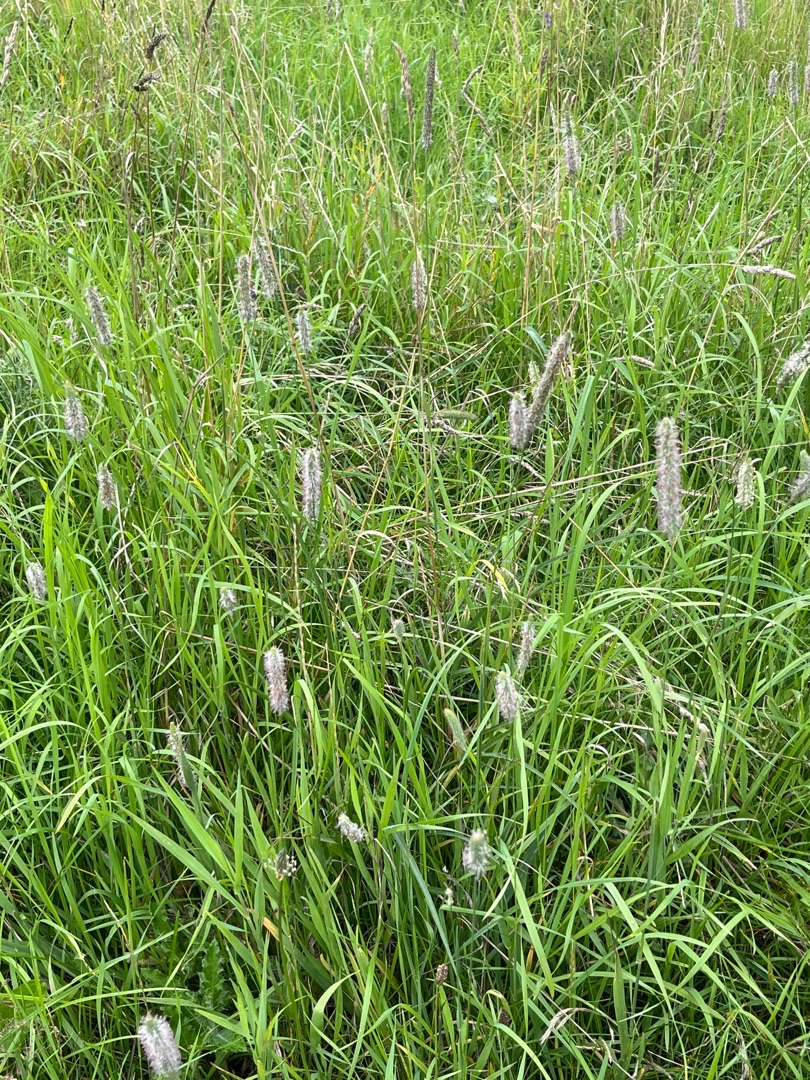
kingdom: Plantae
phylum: Tracheophyta
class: Liliopsida
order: Poales
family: Poaceae
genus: Phleum
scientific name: Phleum pratense
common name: Eng-rottehale
